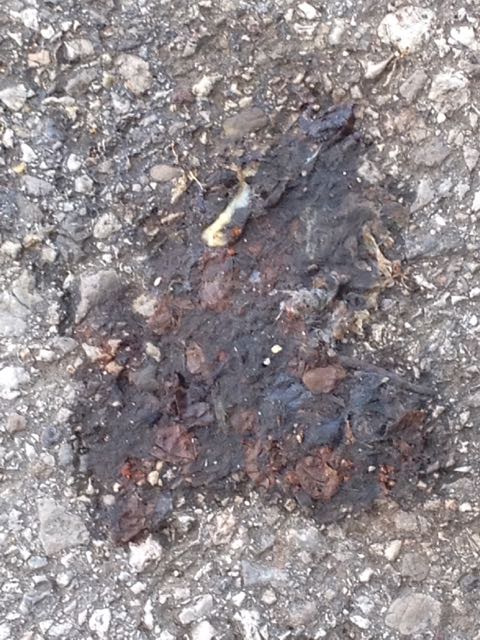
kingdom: Animalia
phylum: Chordata
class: Amphibia
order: Anura
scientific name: Anura
